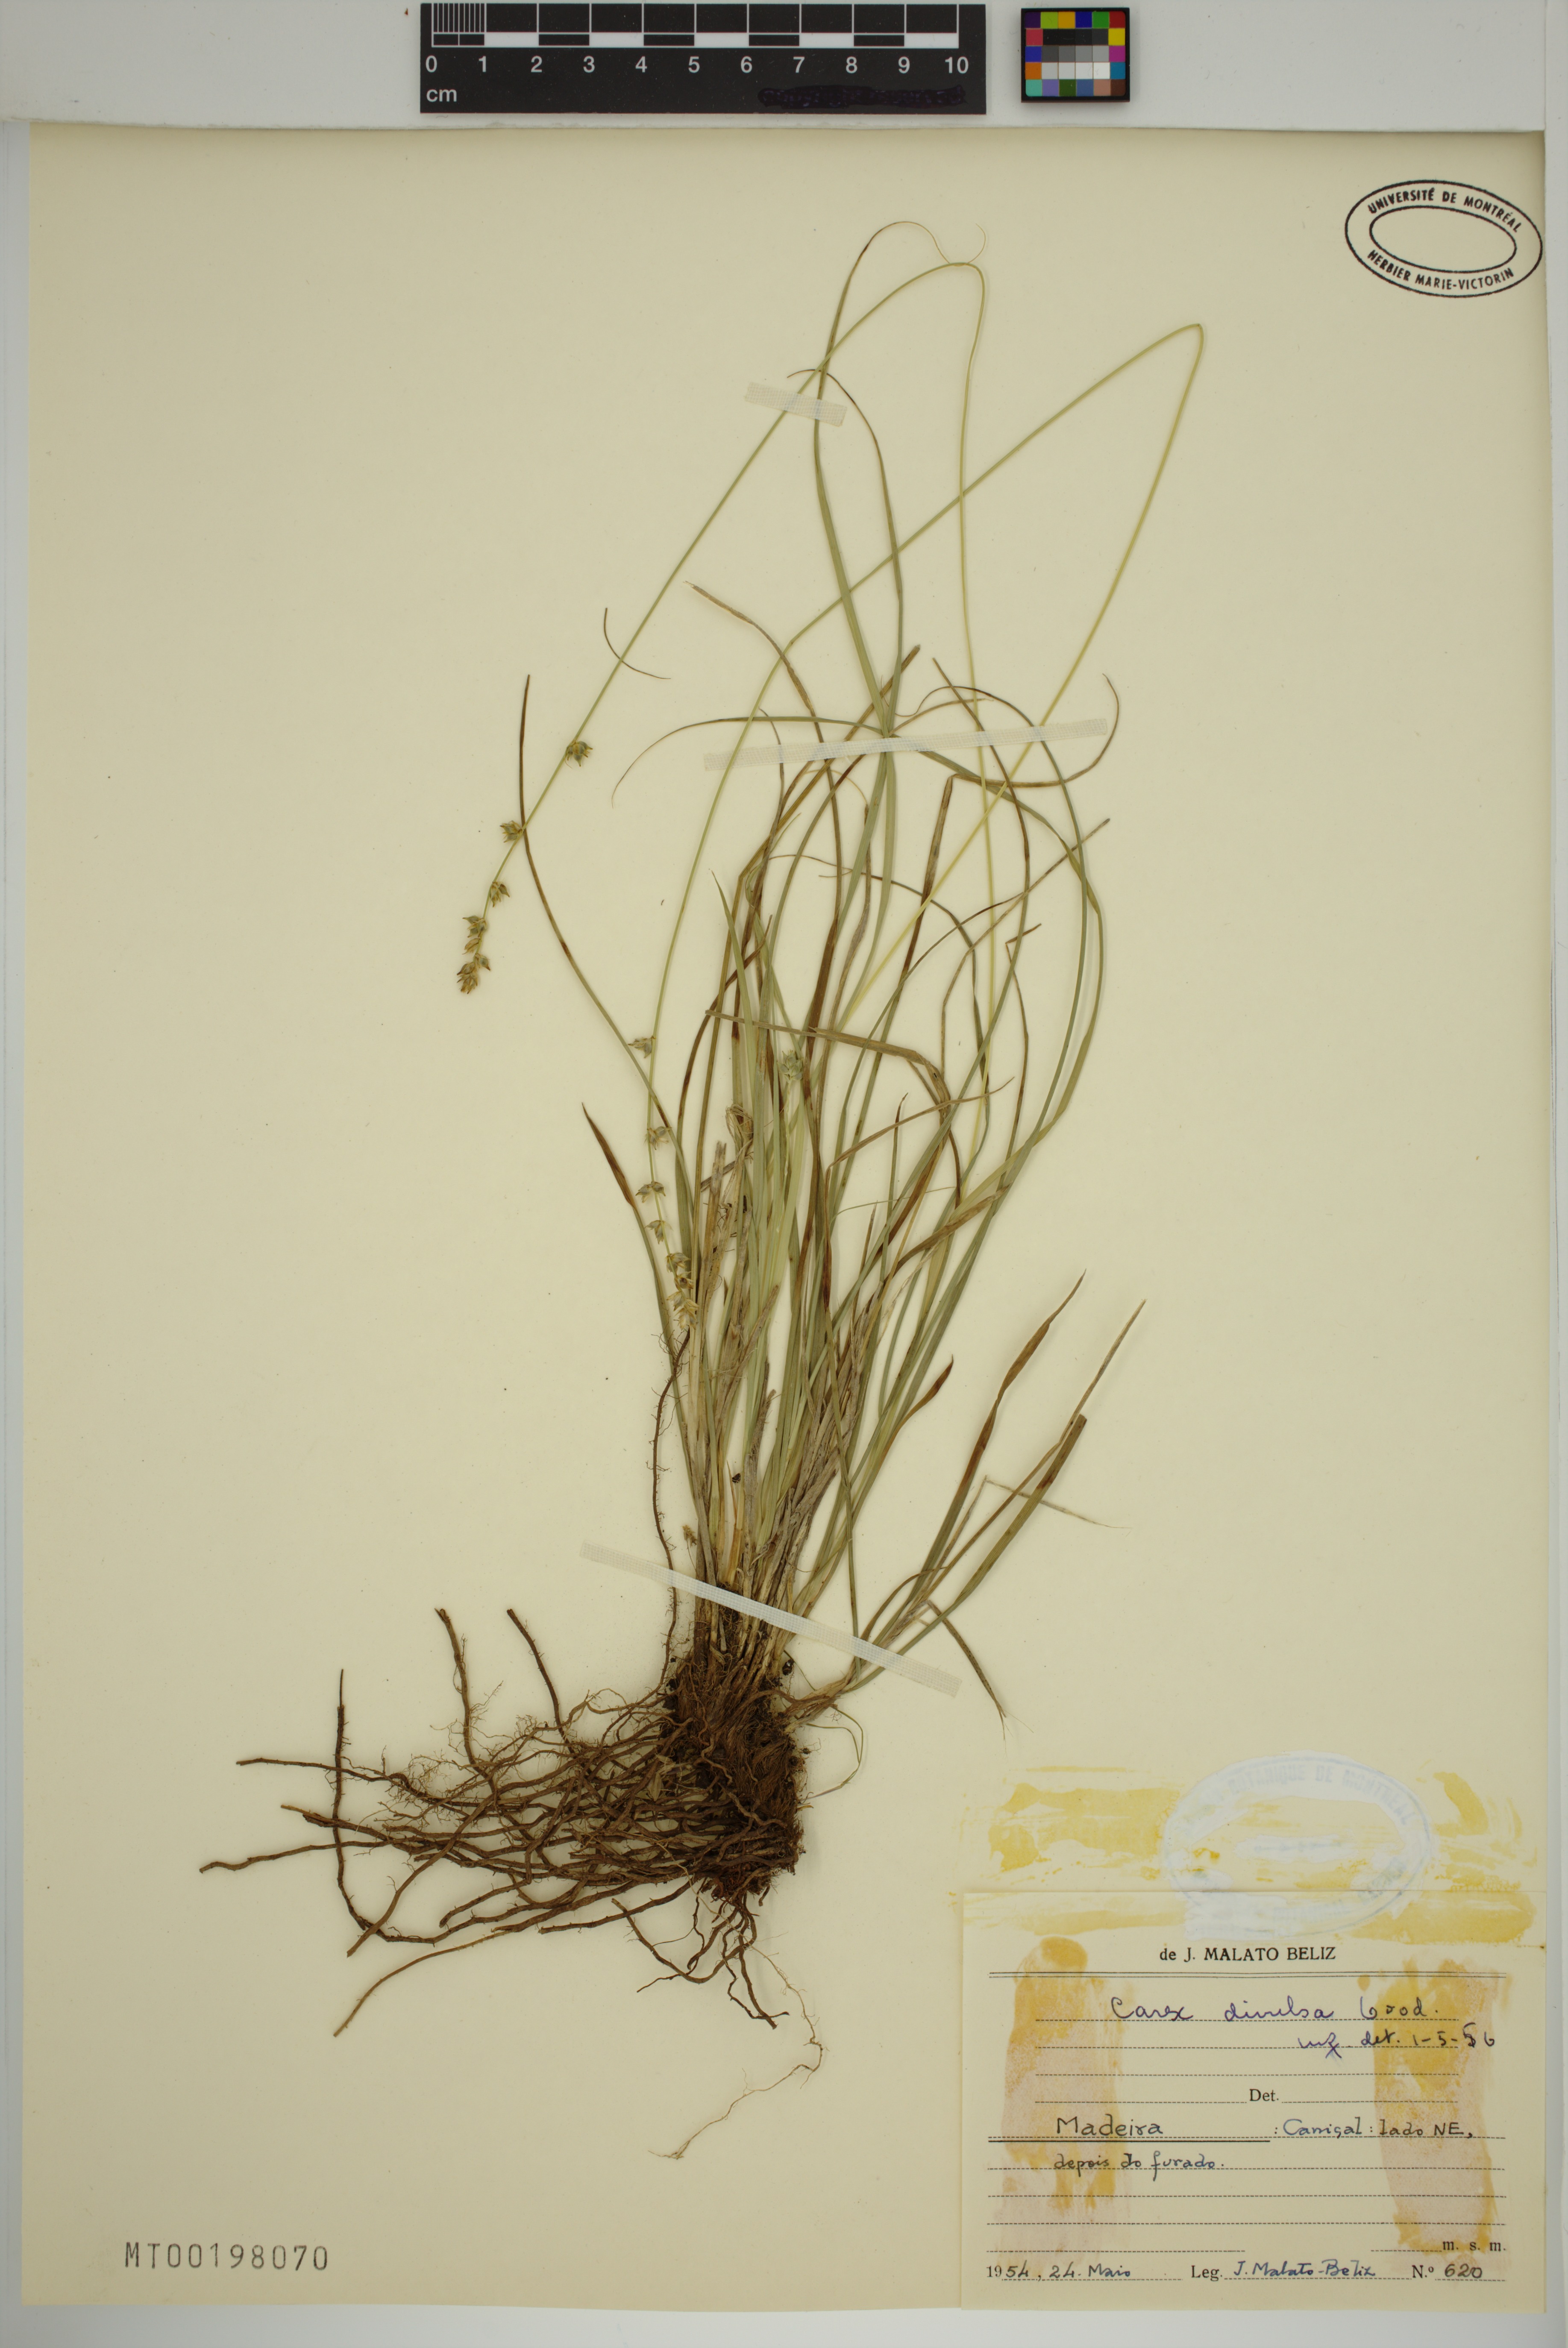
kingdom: Plantae
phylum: Tracheophyta
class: Liliopsida
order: Poales
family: Cyperaceae
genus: Carex
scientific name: Carex divulsa
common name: Grassland sedge
